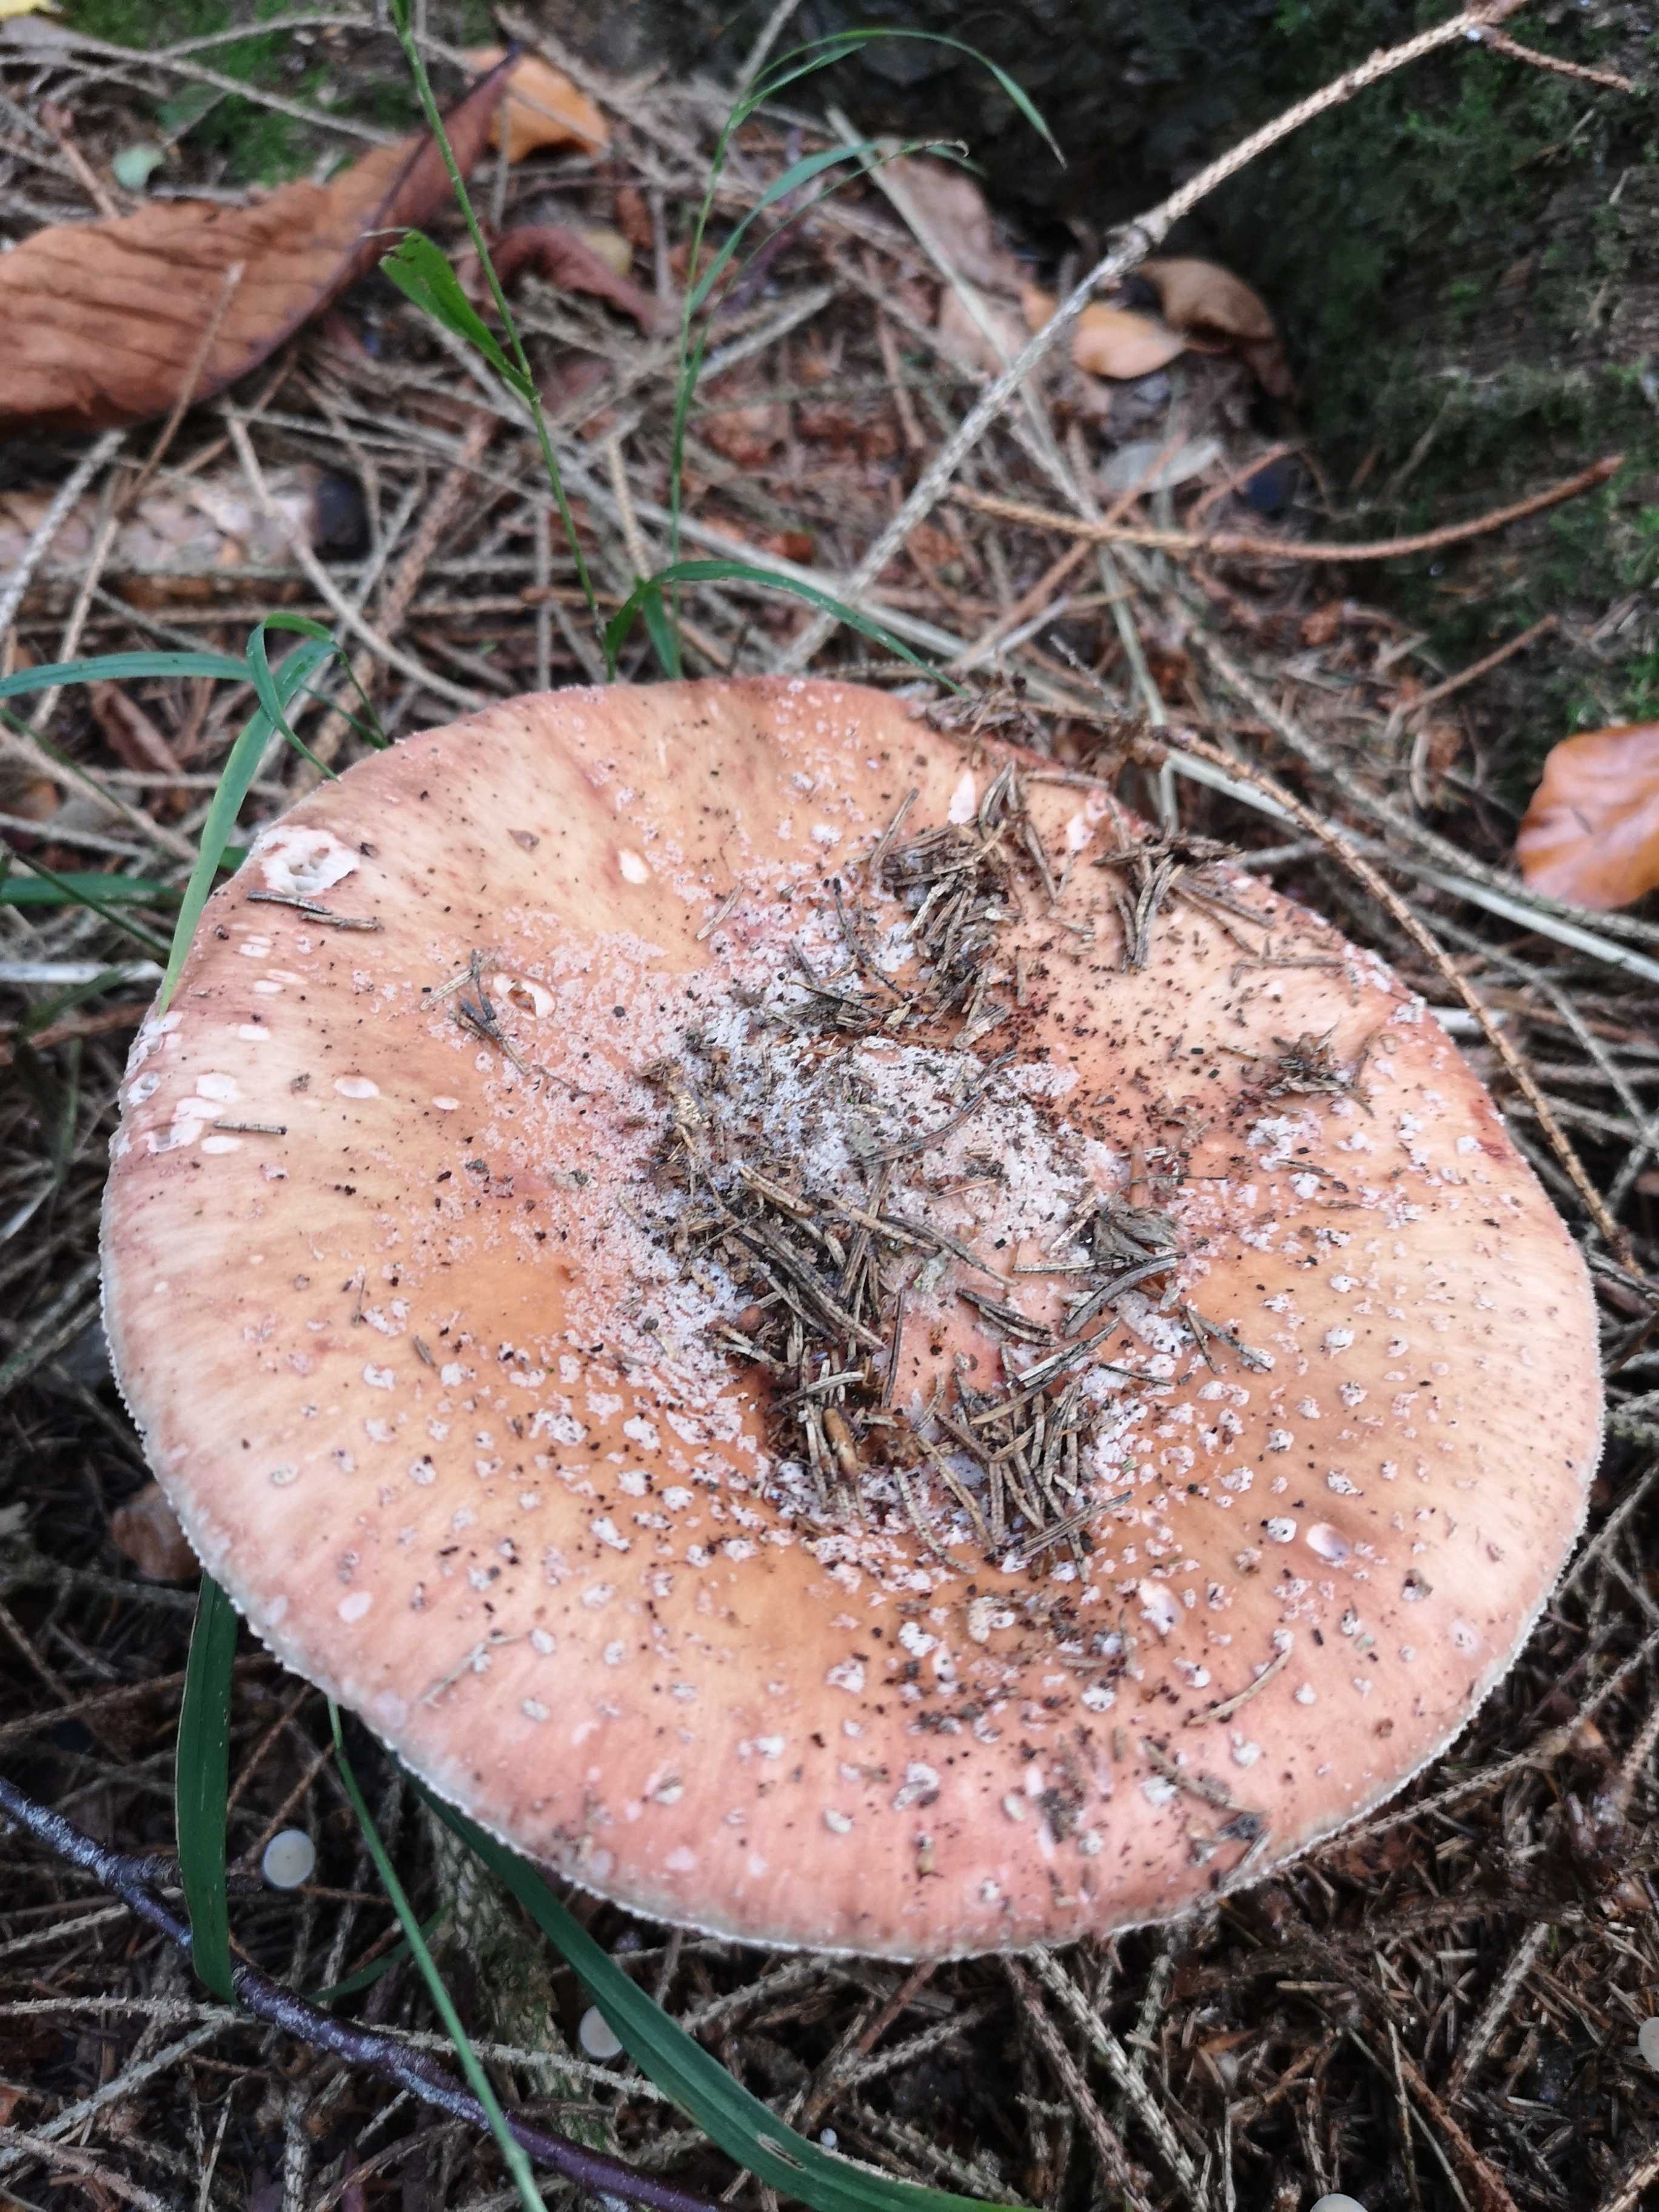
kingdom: Fungi
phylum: Basidiomycota
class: Agaricomycetes
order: Agaricales
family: Amanitaceae
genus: Amanita
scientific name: Amanita rubescens
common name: rødmende fluesvamp
